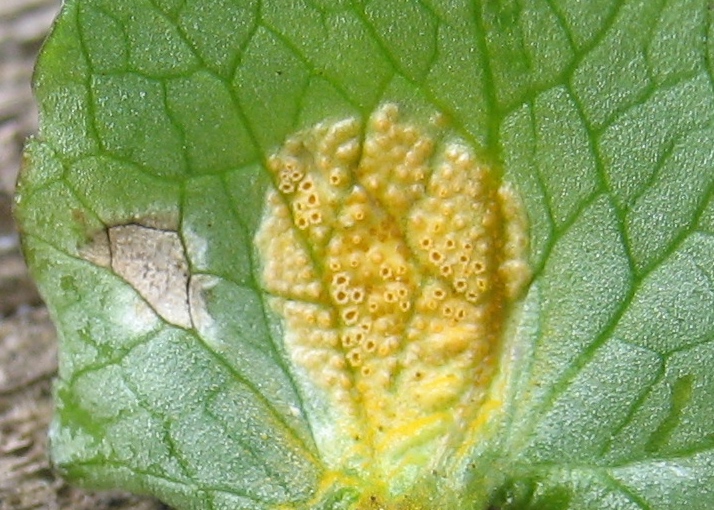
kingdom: Fungi
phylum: Basidiomycota
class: Pucciniomycetes
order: Pucciniales
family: Pucciniaceae
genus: Uromyces
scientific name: Uromyces dactylidis
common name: ranunkel-encellerust
